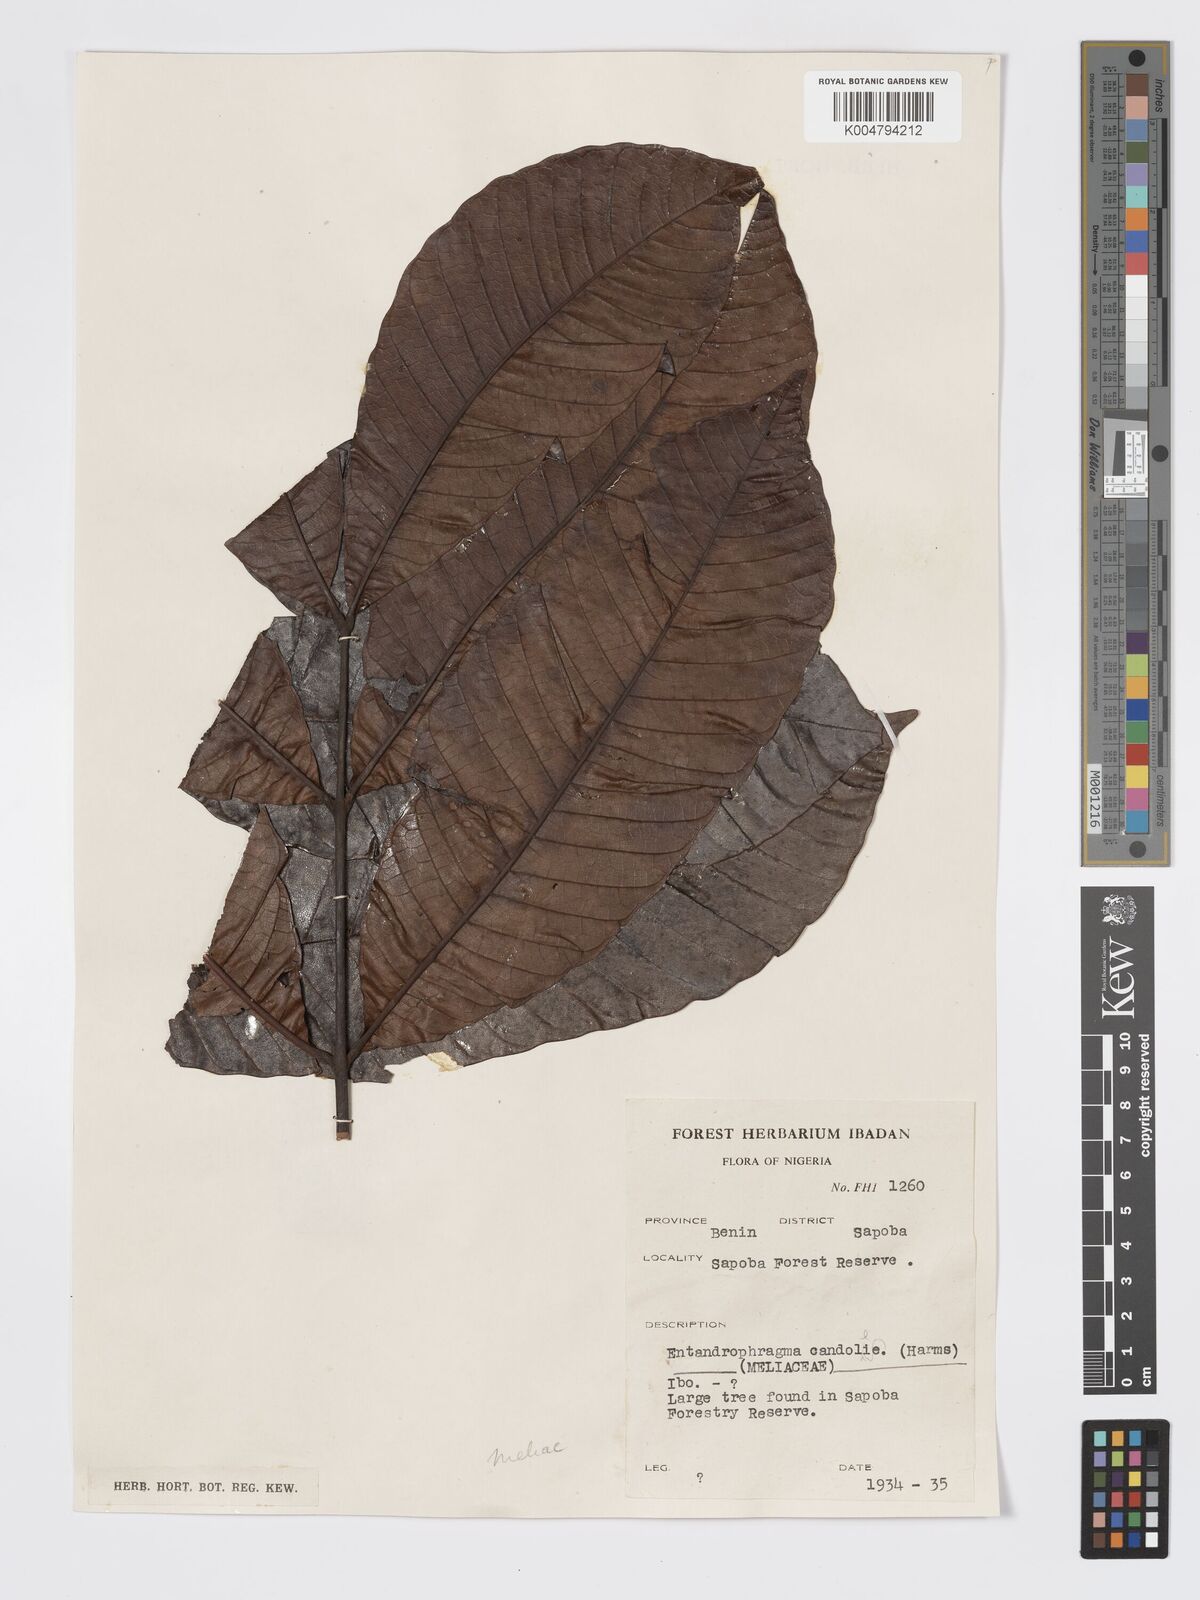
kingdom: Plantae
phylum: Tracheophyta
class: Magnoliopsida
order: Sapindales
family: Meliaceae
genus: Entandrophragma
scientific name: Entandrophragma candollei
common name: Cedar kokoti
